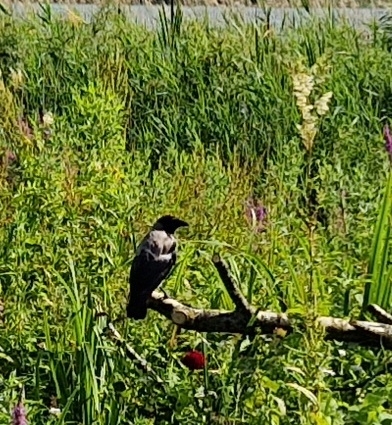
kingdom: Animalia
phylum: Chordata
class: Aves
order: Passeriformes
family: Corvidae
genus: Corvus
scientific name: Corvus cornix
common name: Gråkrage
